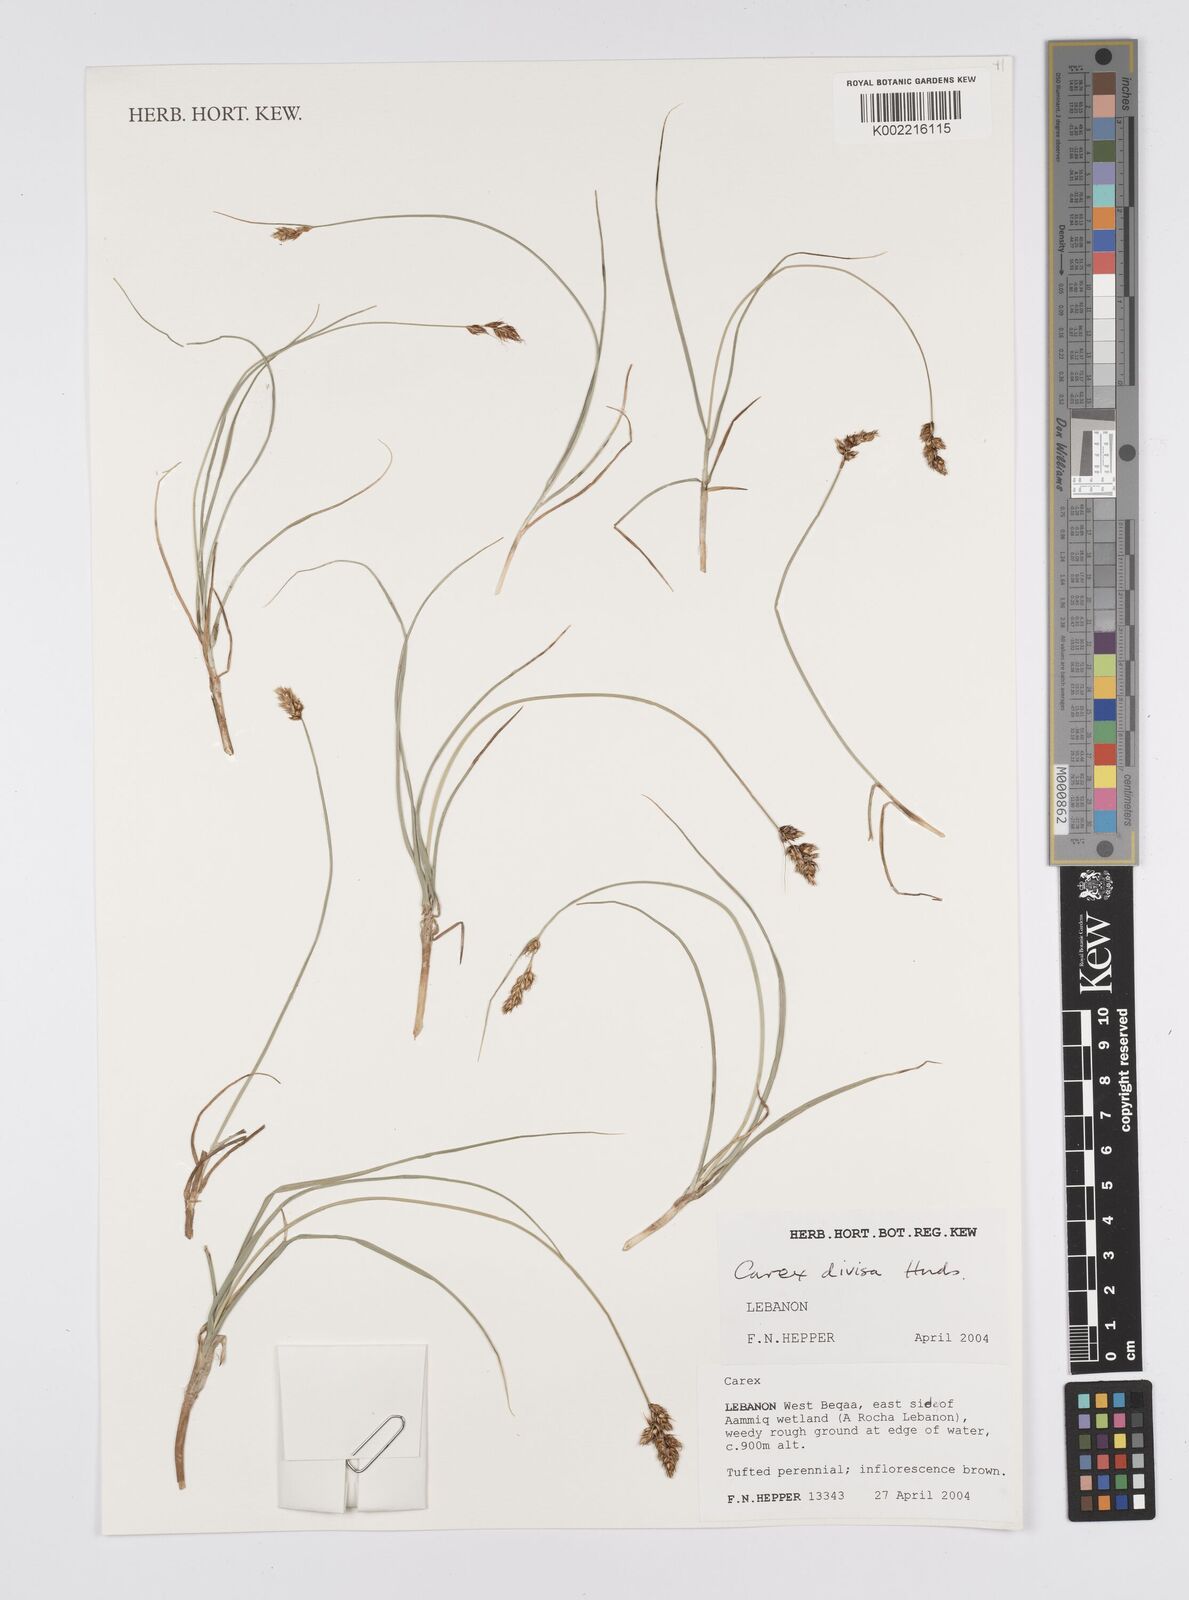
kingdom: Plantae
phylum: Tracheophyta
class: Liliopsida
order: Poales
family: Cyperaceae
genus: Carex
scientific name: Carex divisa
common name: Divided sedge
